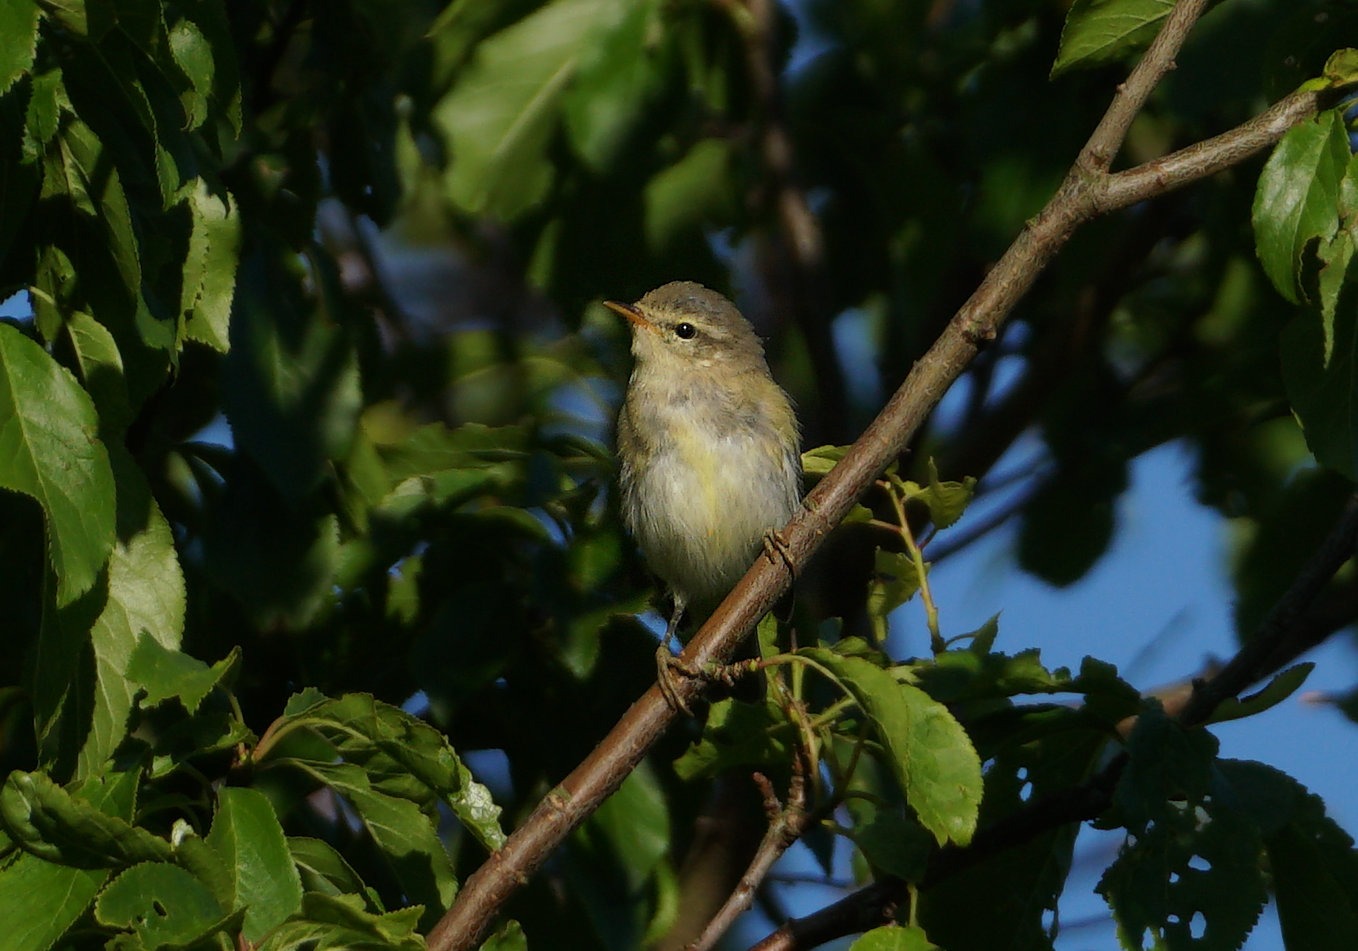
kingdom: Animalia
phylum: Chordata
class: Aves
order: Passeriformes
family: Phylloscopidae
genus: Phylloscopus
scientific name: Phylloscopus trochilus
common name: Løvsanger
